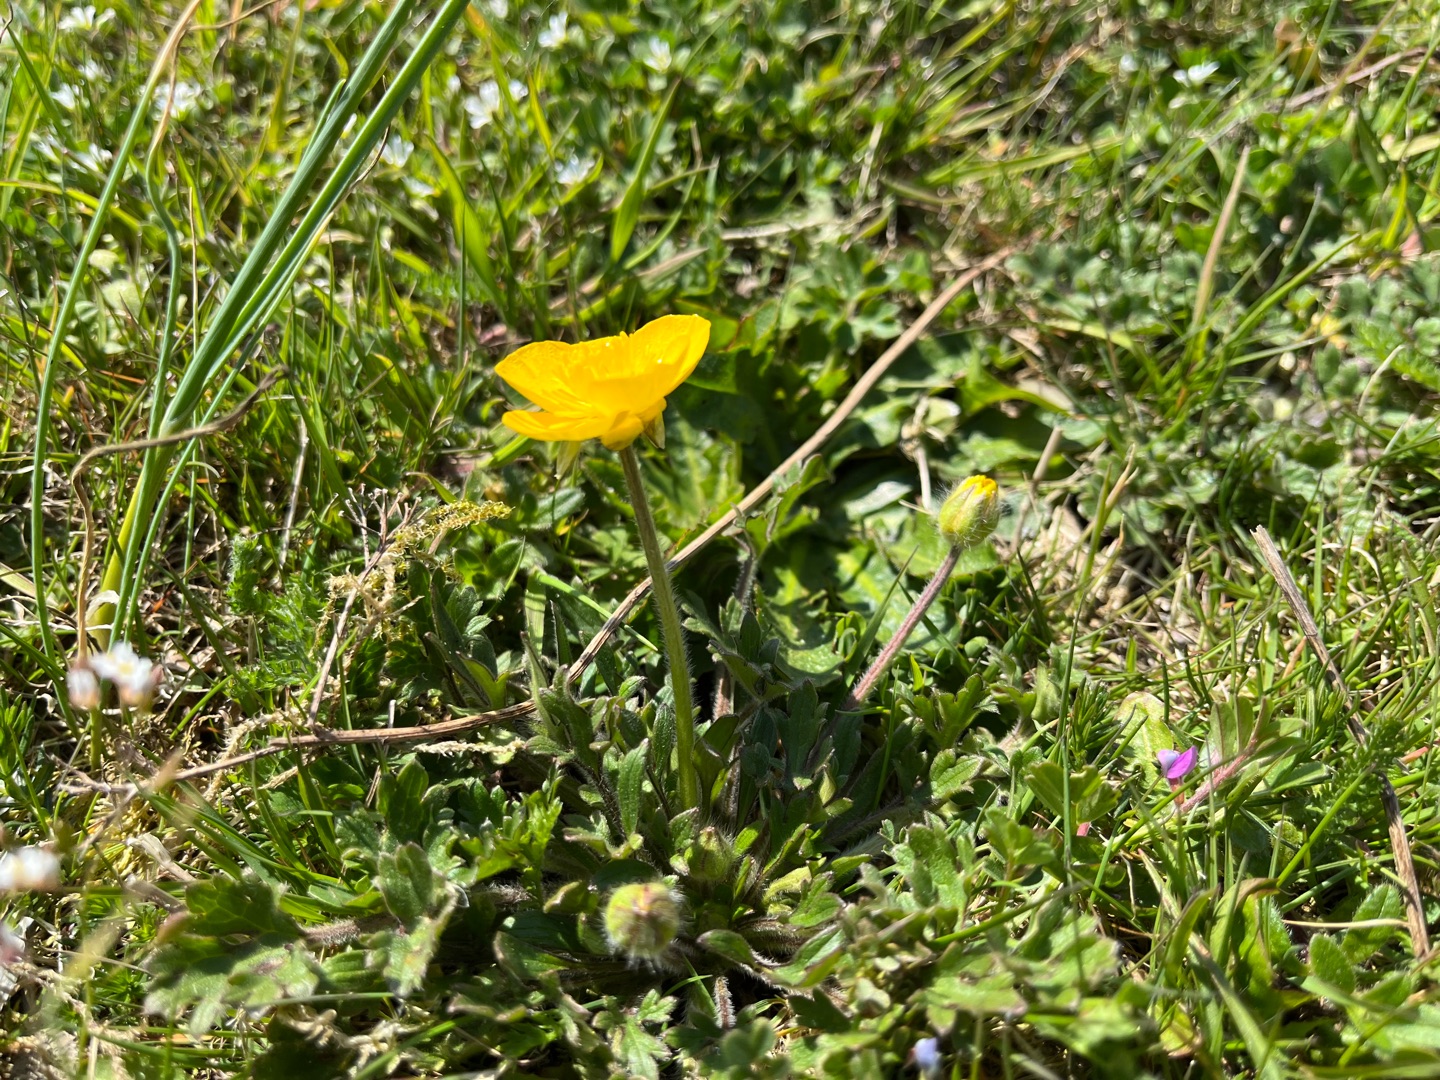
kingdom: Plantae
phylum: Tracheophyta
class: Magnoliopsida
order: Ranunculales
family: Ranunculaceae
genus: Ranunculus
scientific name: Ranunculus bulbosus
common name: Knold-ranunkel
